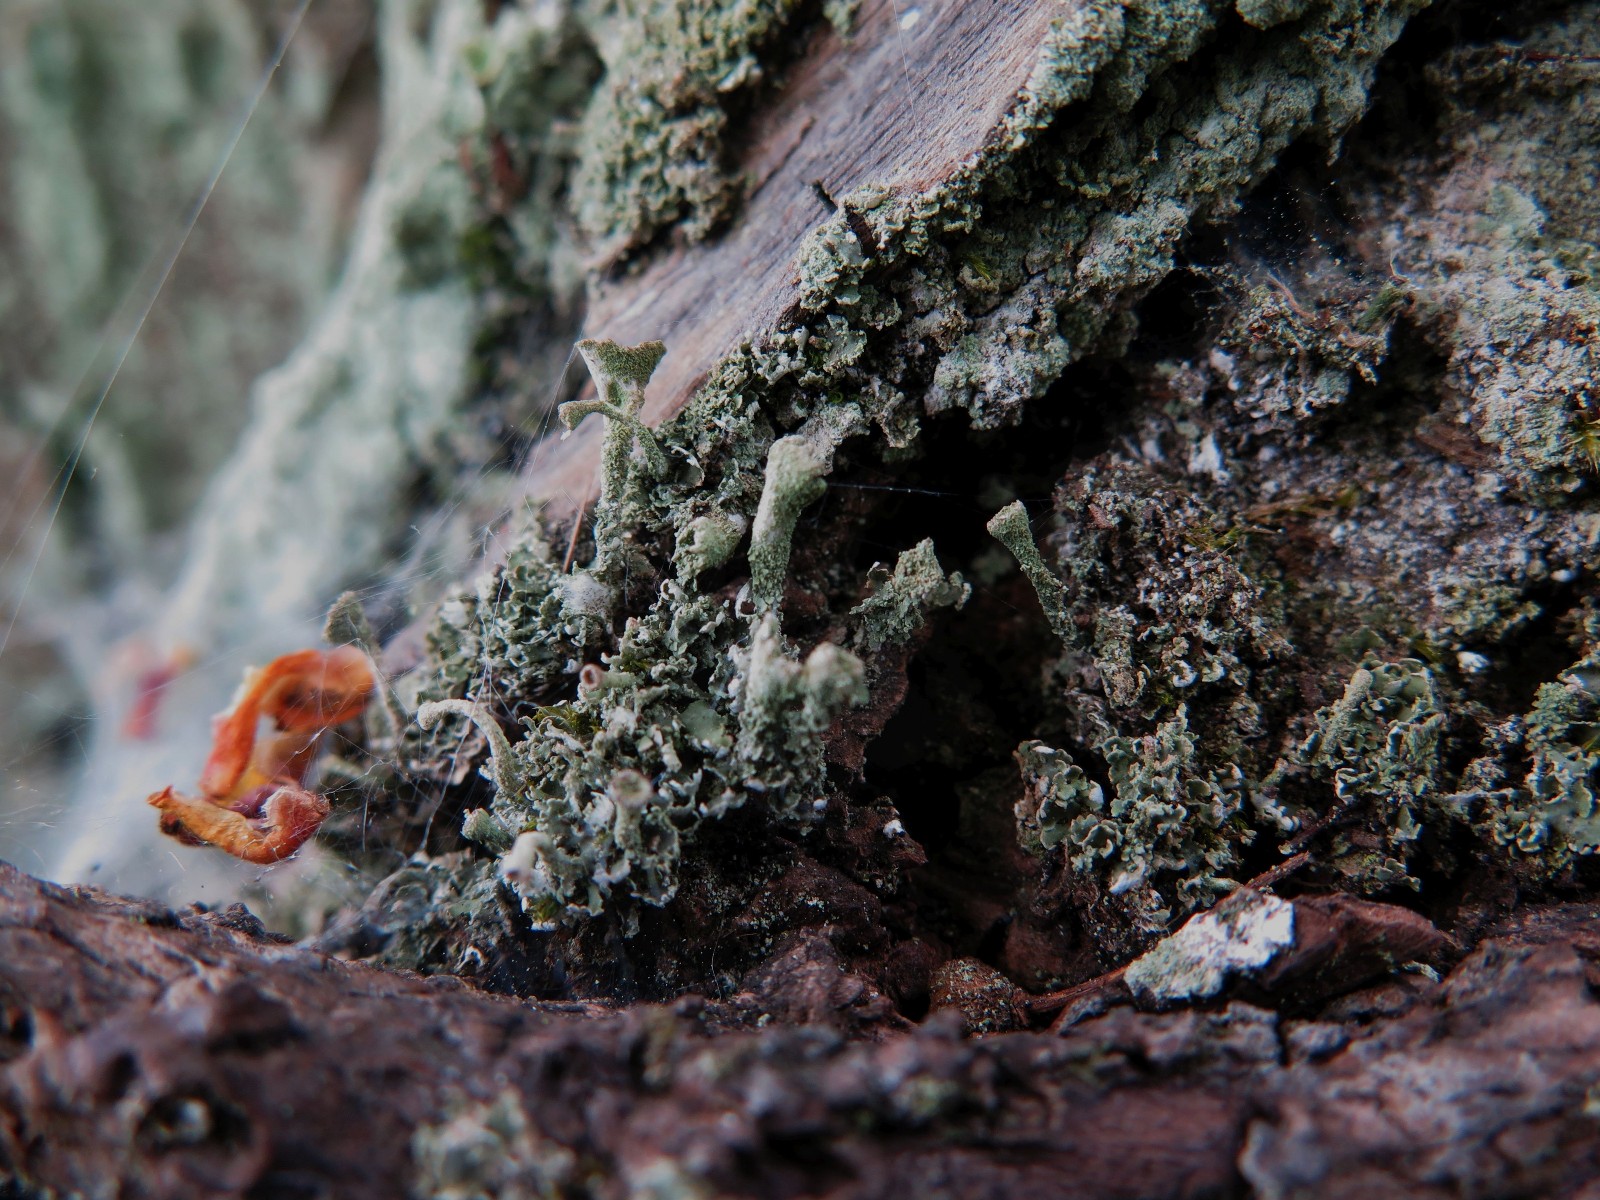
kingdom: Fungi
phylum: Ascomycota
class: Lecanoromycetes
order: Lecanorales
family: Cladoniaceae
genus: Cladonia
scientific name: Cladonia
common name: brungrøn bægerlav
